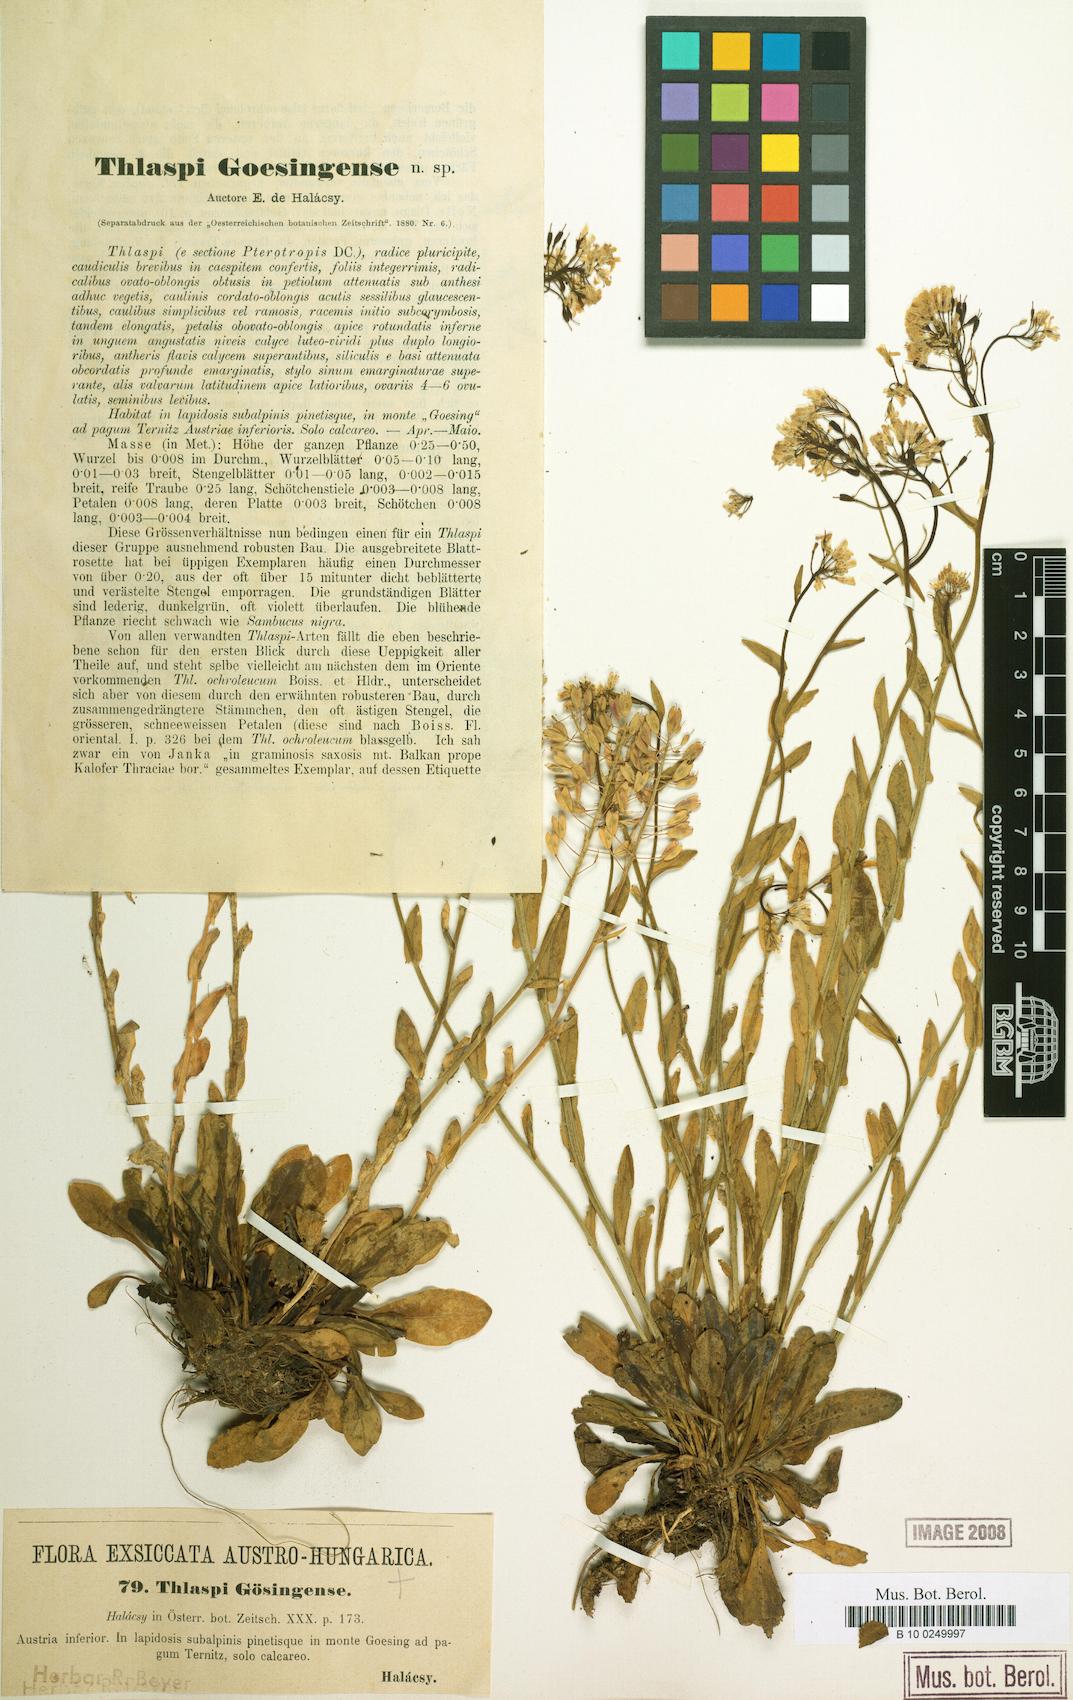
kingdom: Plantae
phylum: Tracheophyta
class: Magnoliopsida
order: Brassicales
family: Brassicaceae
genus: Noccaea
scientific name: Noccaea goesingensis
